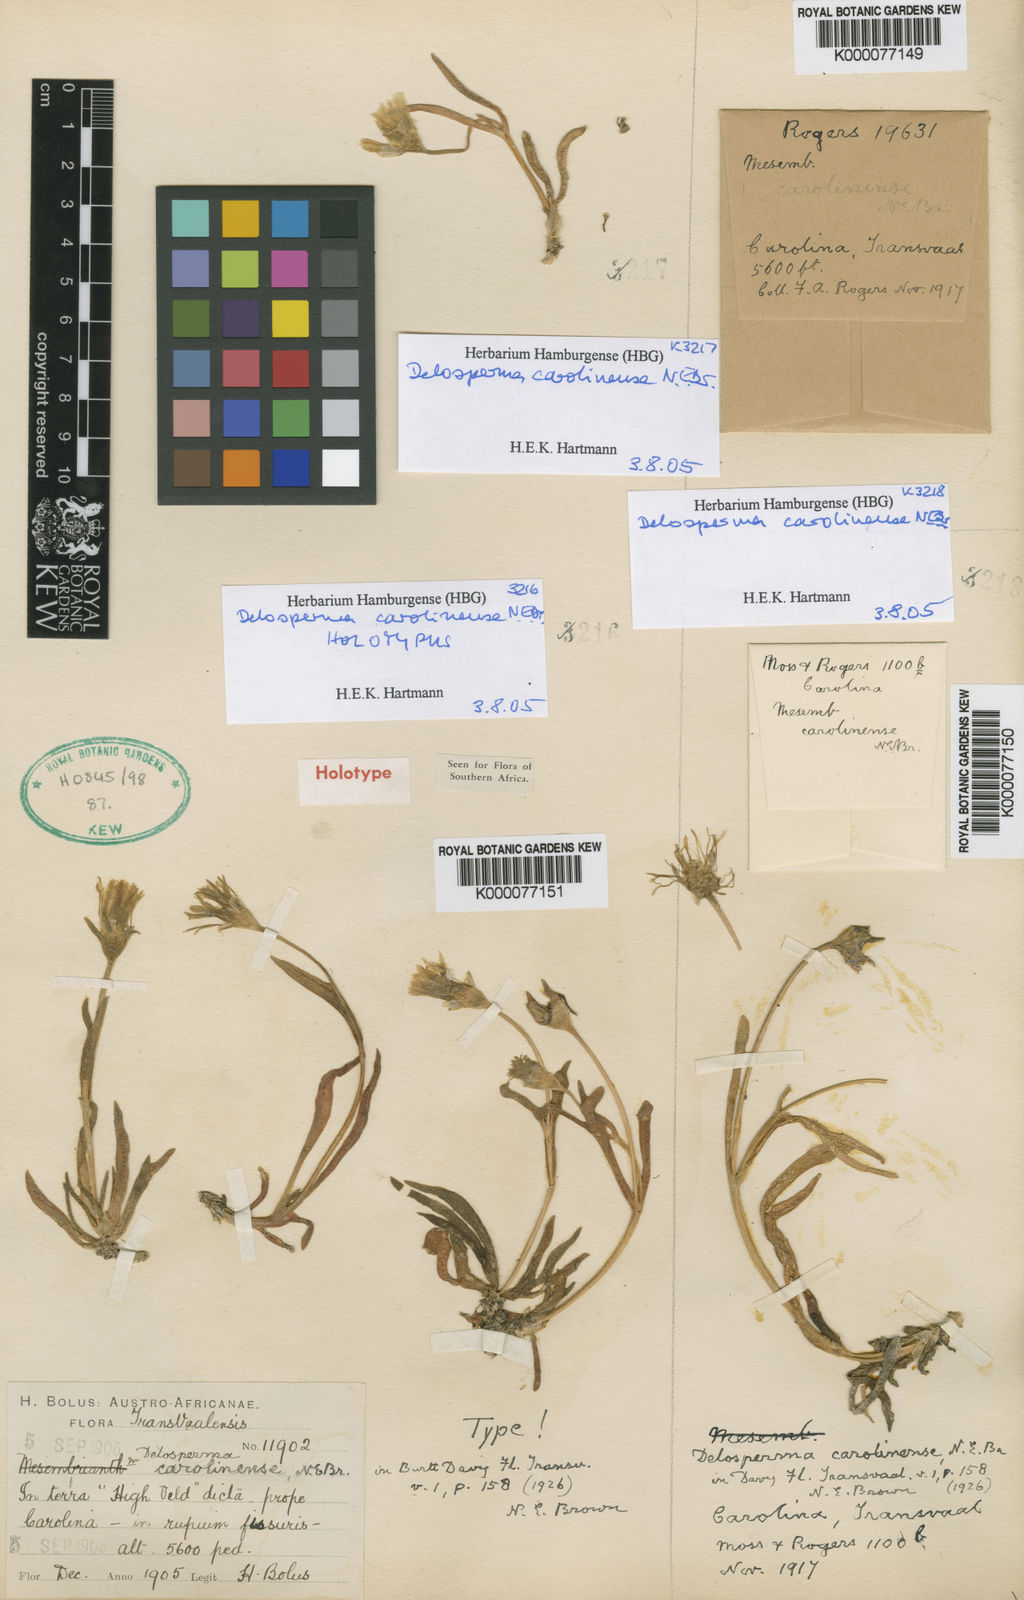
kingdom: Plantae
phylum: Tracheophyta
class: Magnoliopsida
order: Caryophyllales
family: Aizoaceae
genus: Delosperma
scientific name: Delosperma carolinense
